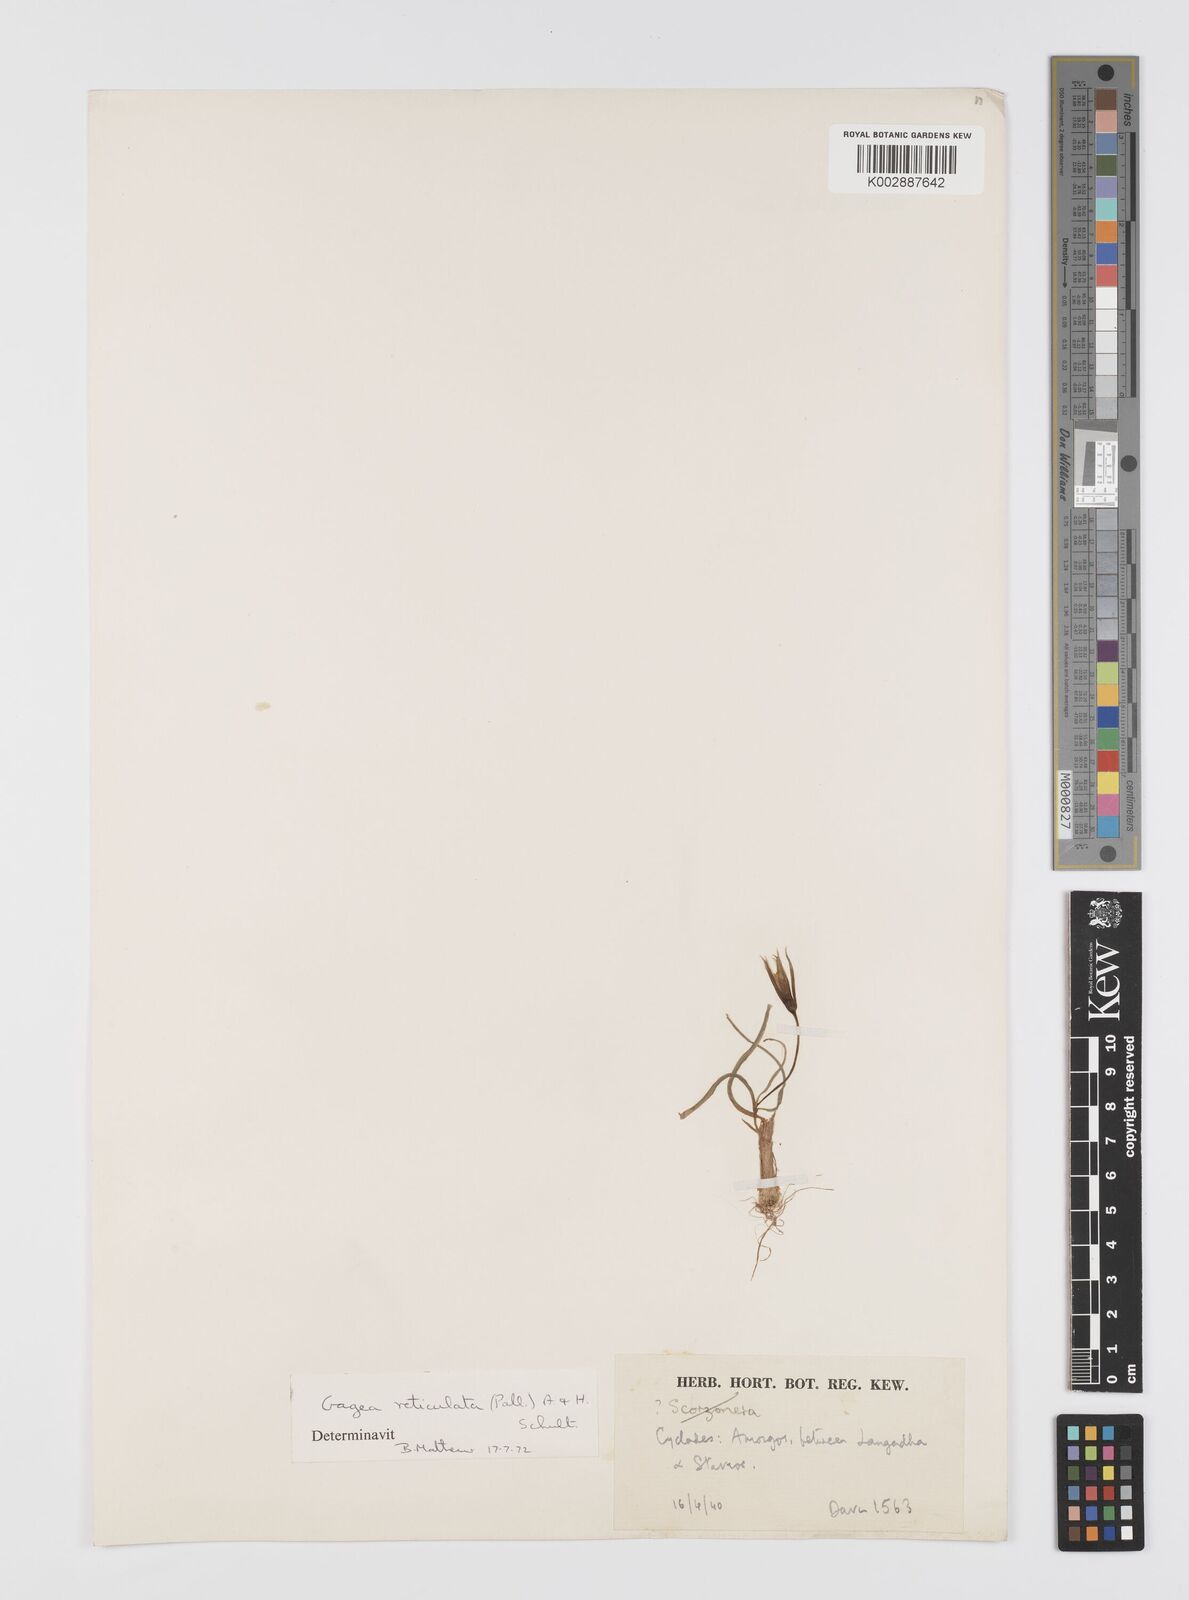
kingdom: Plantae
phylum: Tracheophyta
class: Liliopsida
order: Liliales
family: Liliaceae
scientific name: Liliaceae
